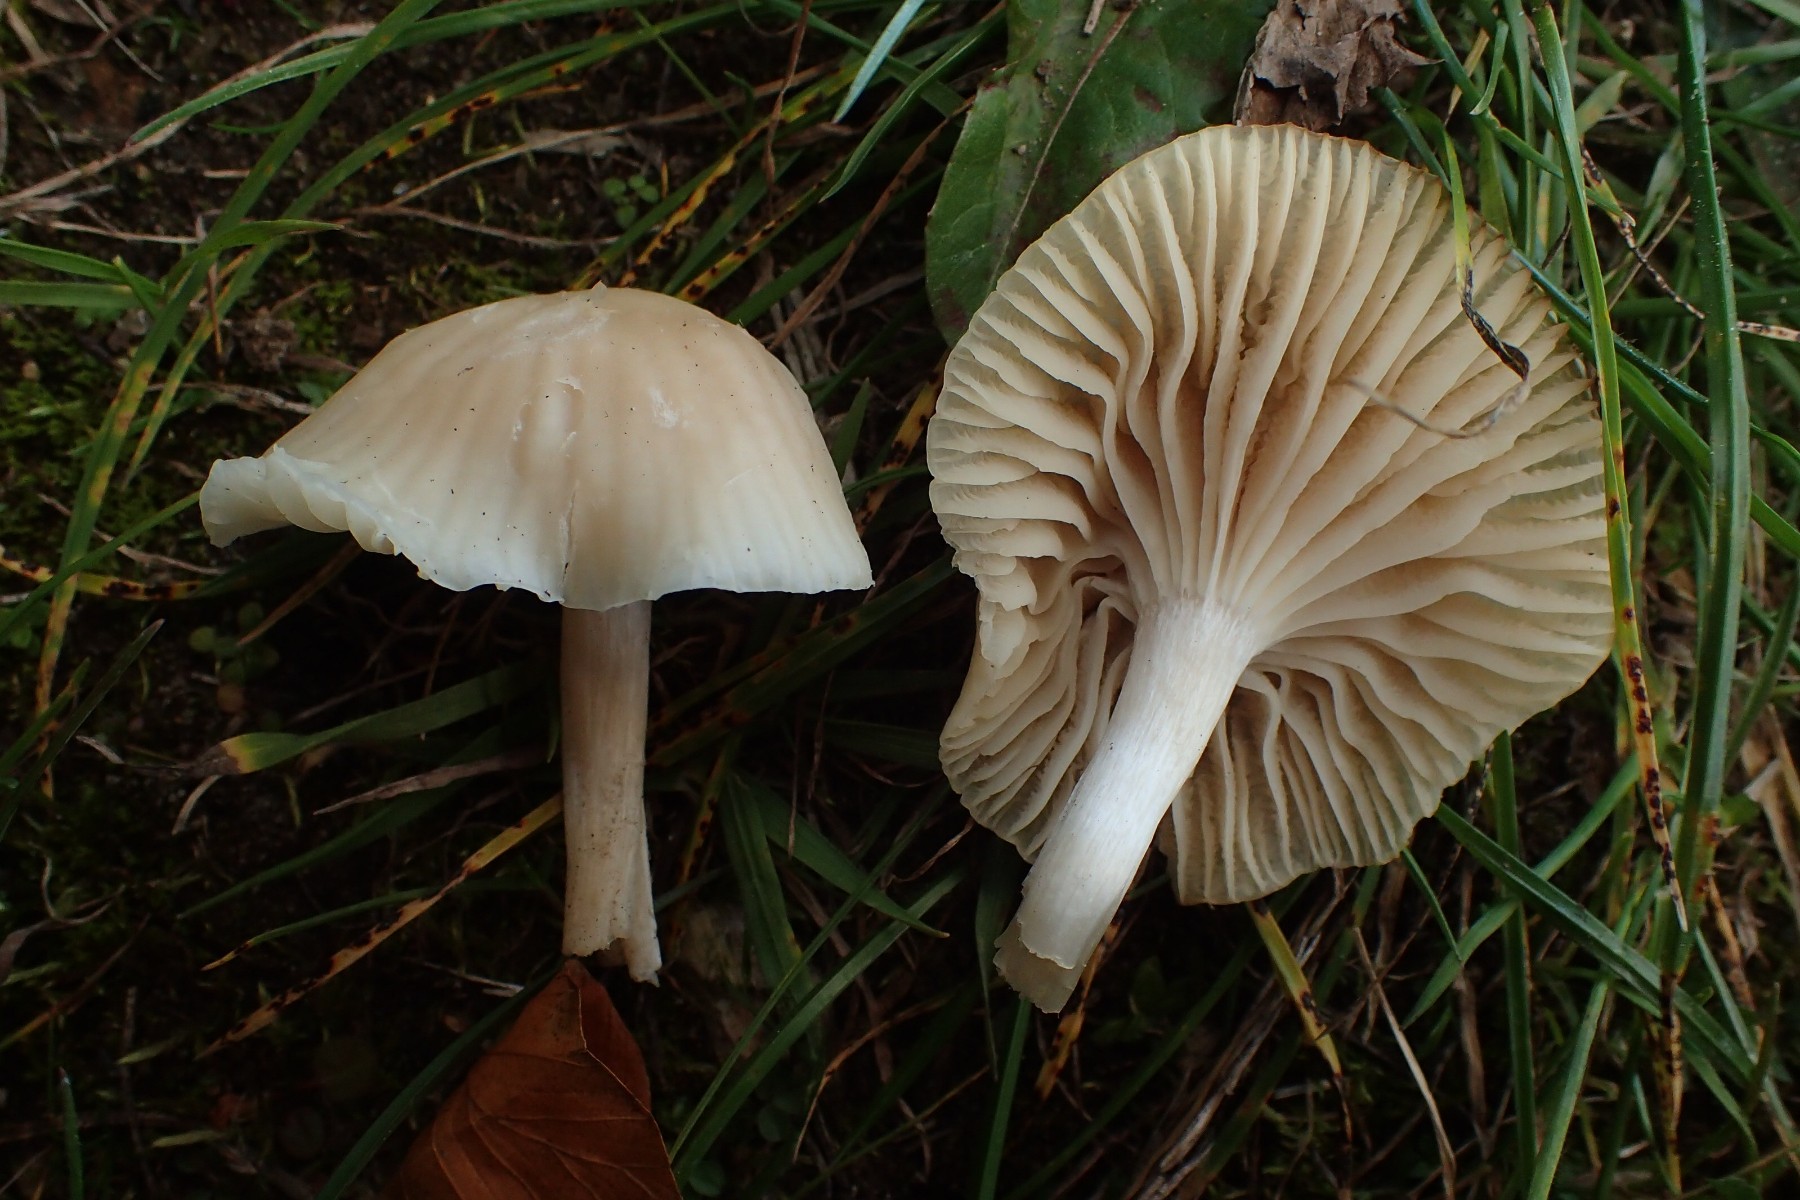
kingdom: Fungi
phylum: Basidiomycota
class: Agaricomycetes
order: Agaricales
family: Hygrophoraceae
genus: Cuphophyllus
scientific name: Cuphophyllus virgineus
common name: isabella-vokshat
